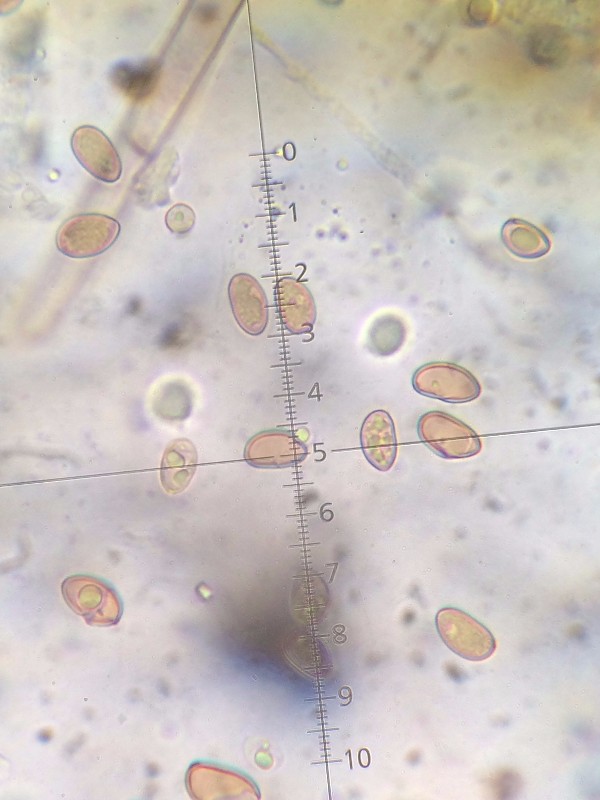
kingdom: Fungi
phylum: Basidiomycota
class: Agaricomycetes
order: Agaricales
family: Inocybaceae
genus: Pseudosperma
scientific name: Pseudosperma
